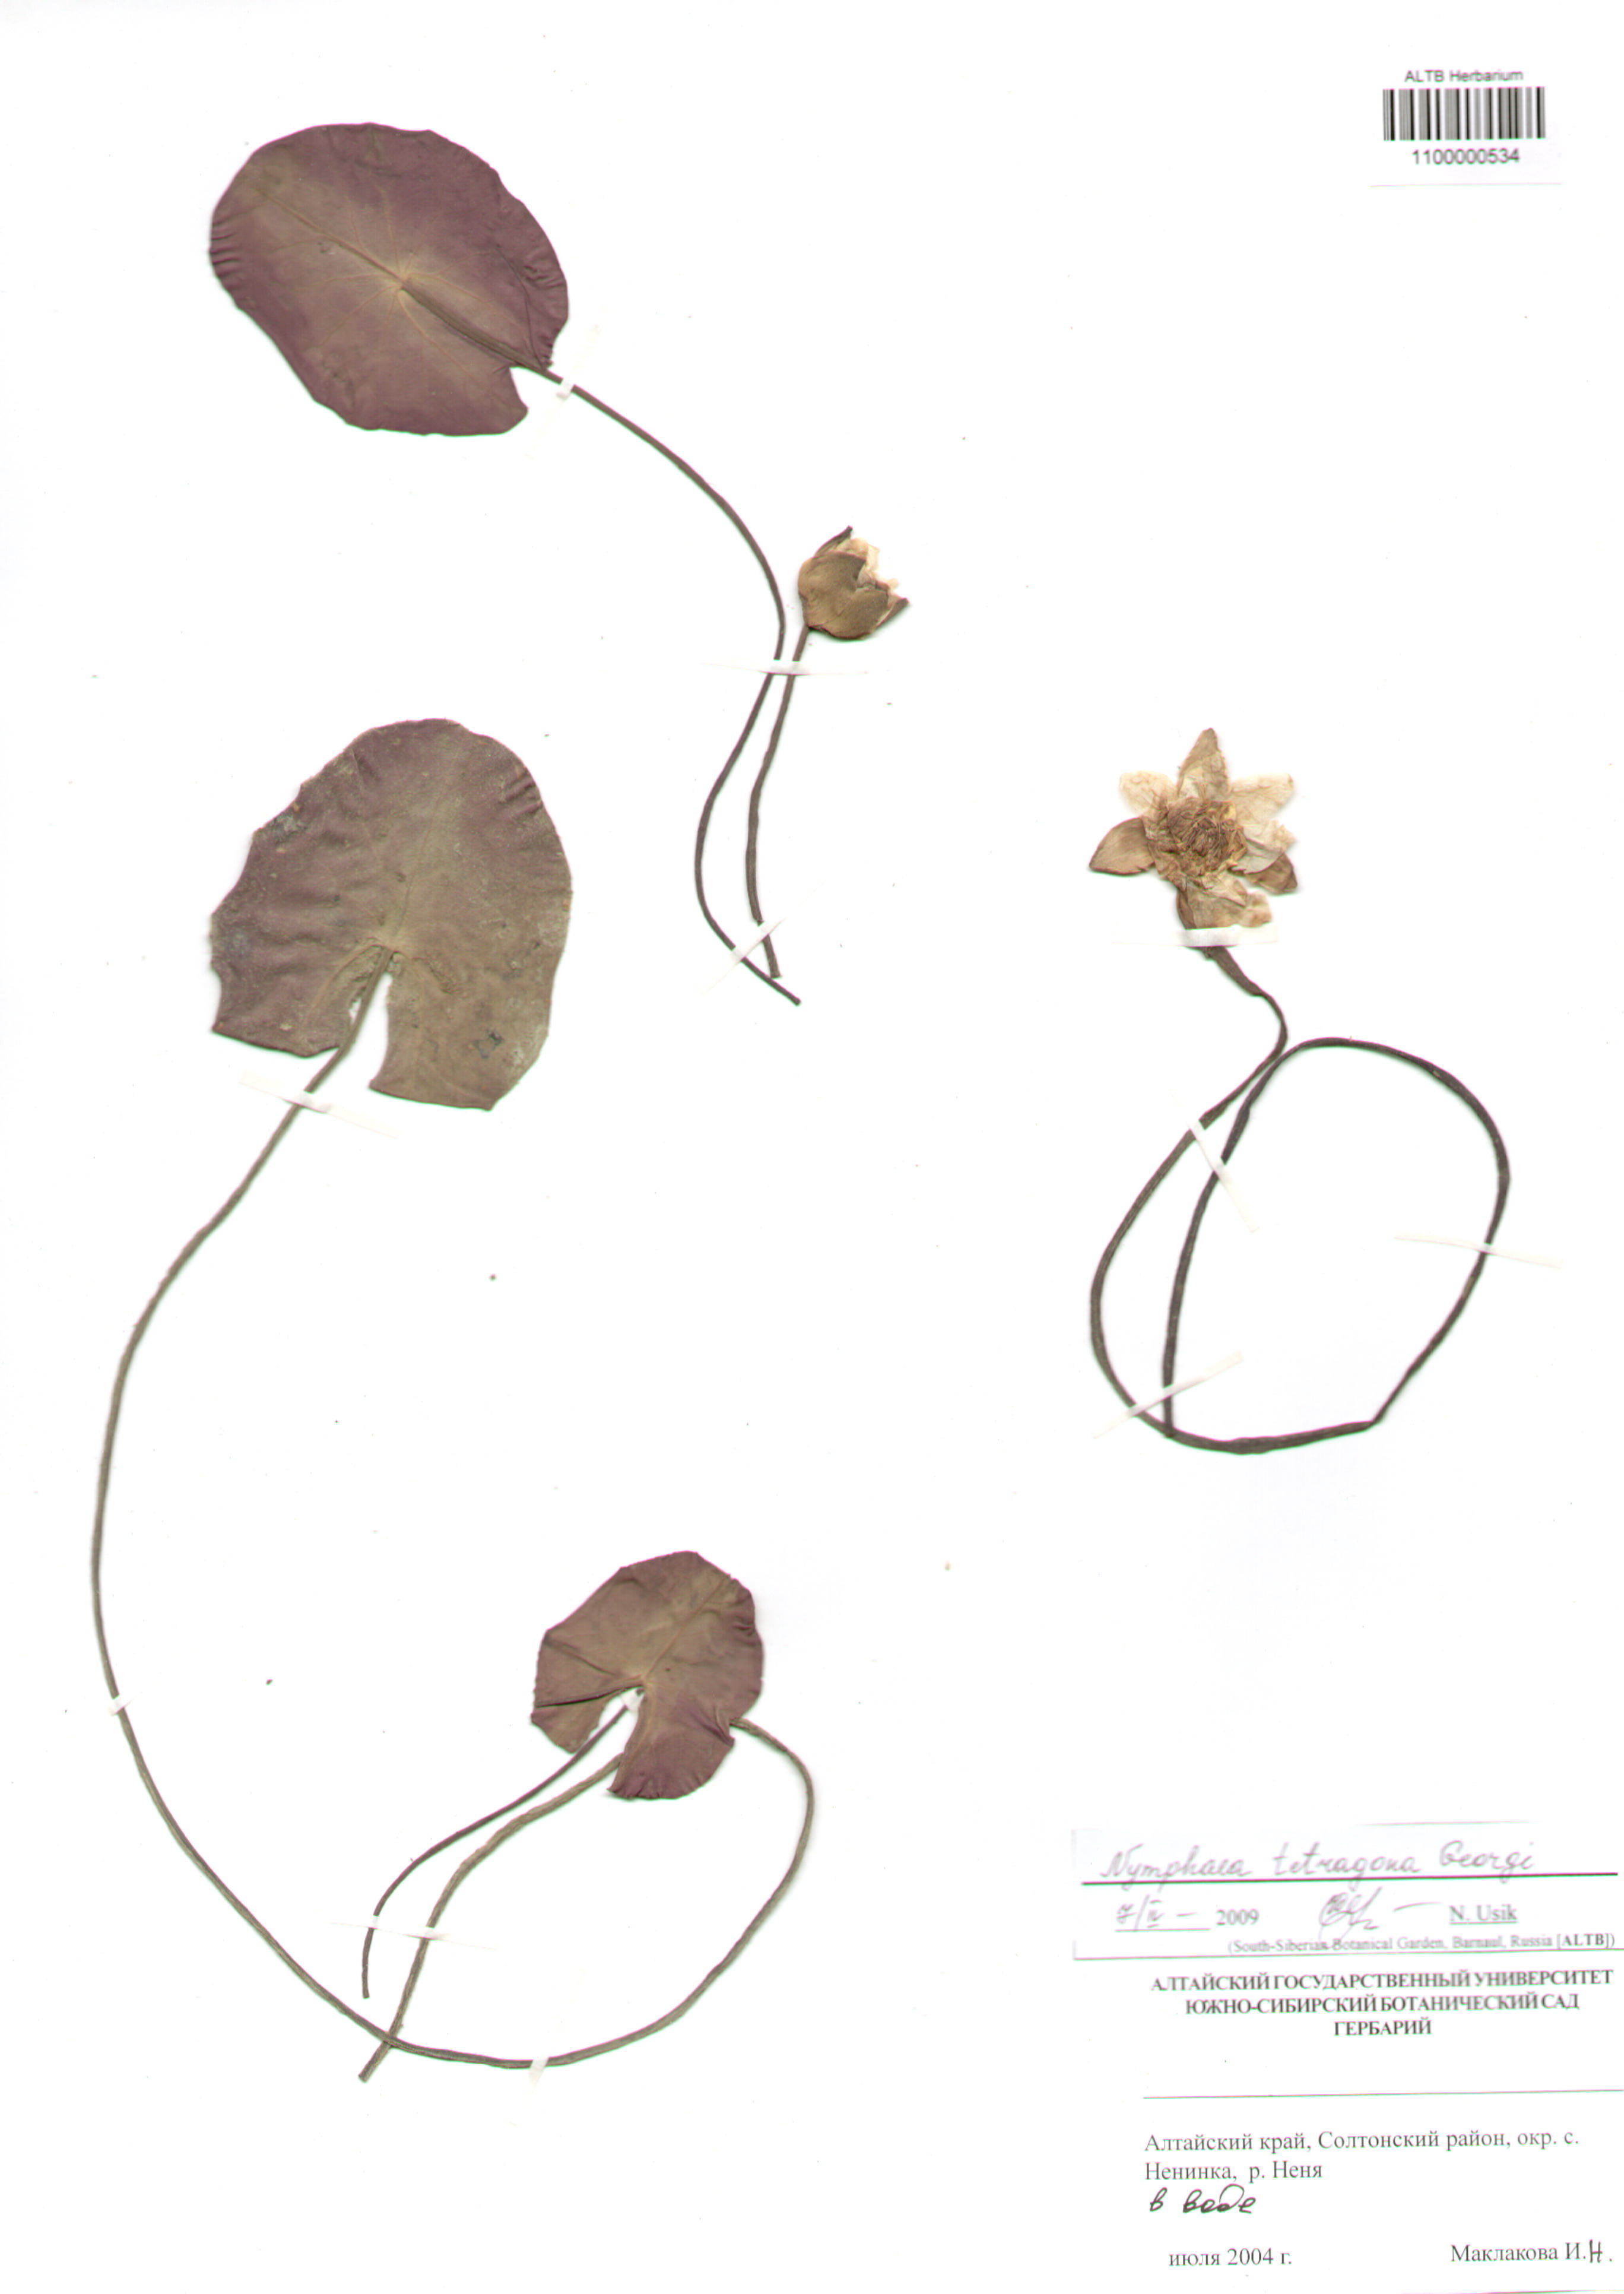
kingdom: Plantae
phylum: Tracheophyta
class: Magnoliopsida
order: Nymphaeales
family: Nymphaeaceae
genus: Nymphaea
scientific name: Nymphaea tetragona
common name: Pygmy water-lily
